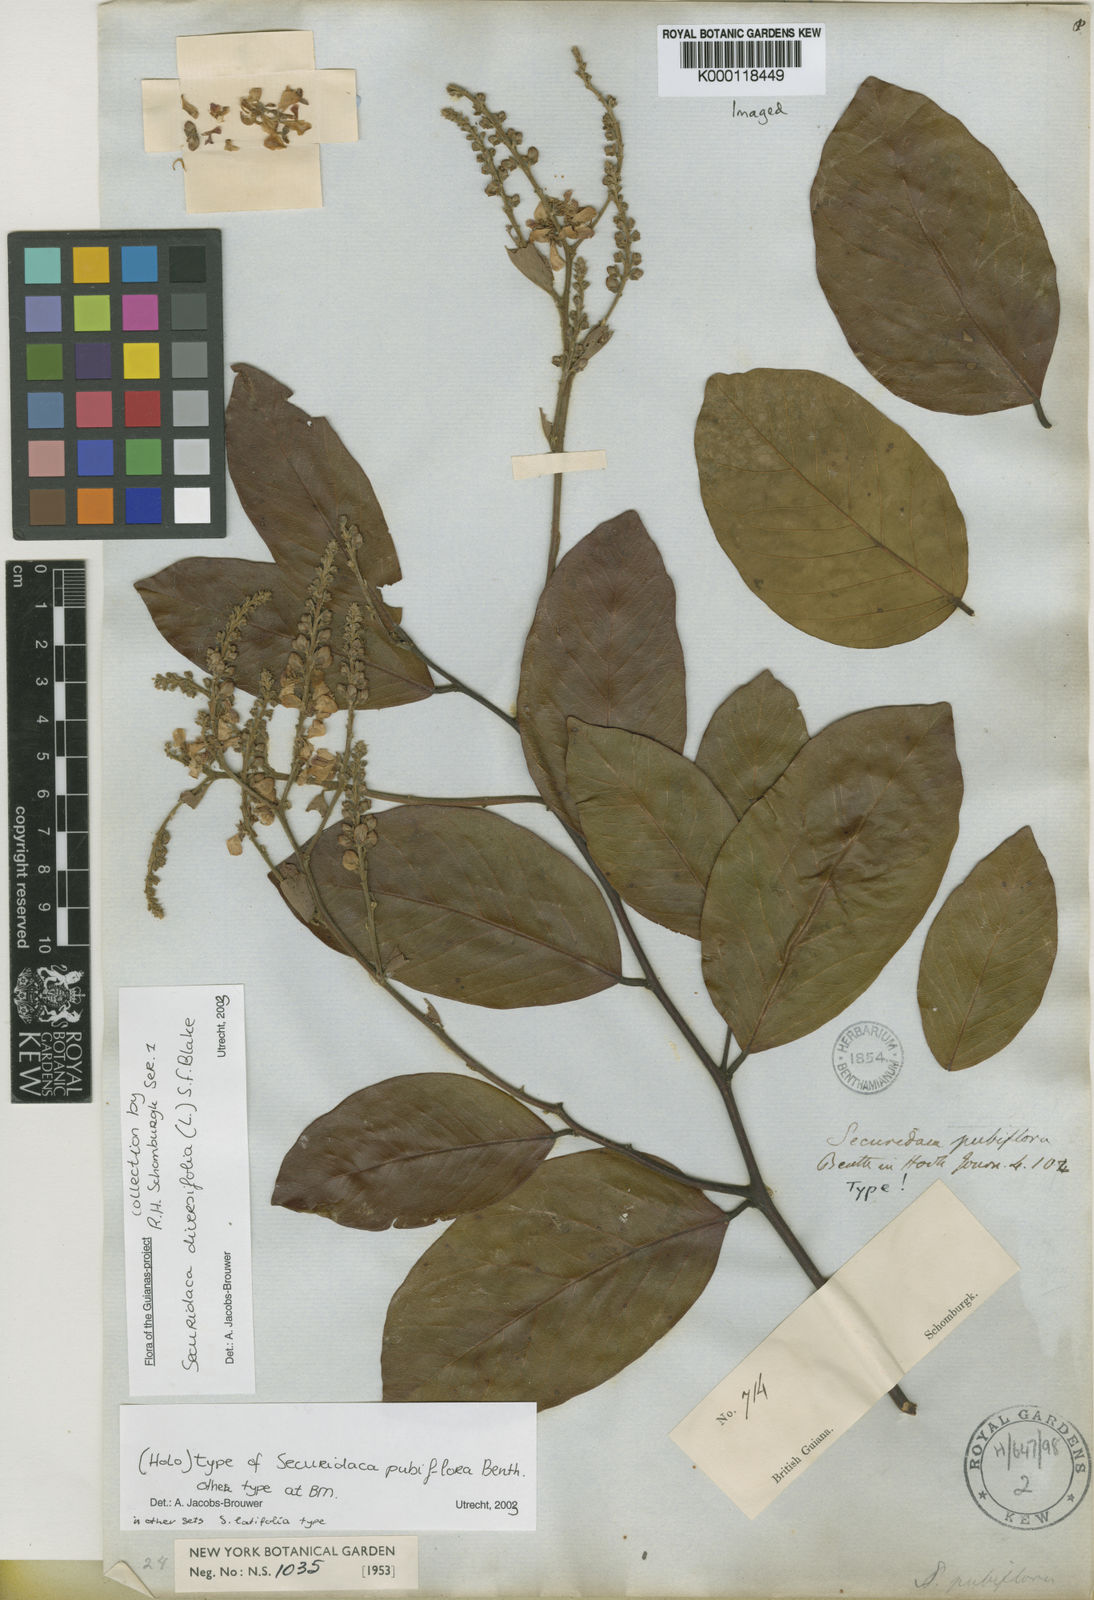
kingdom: Plantae
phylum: Tracheophyta
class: Magnoliopsida
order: Fabales
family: Polygalaceae
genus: Securidaca
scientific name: Securidaca diversifolia
